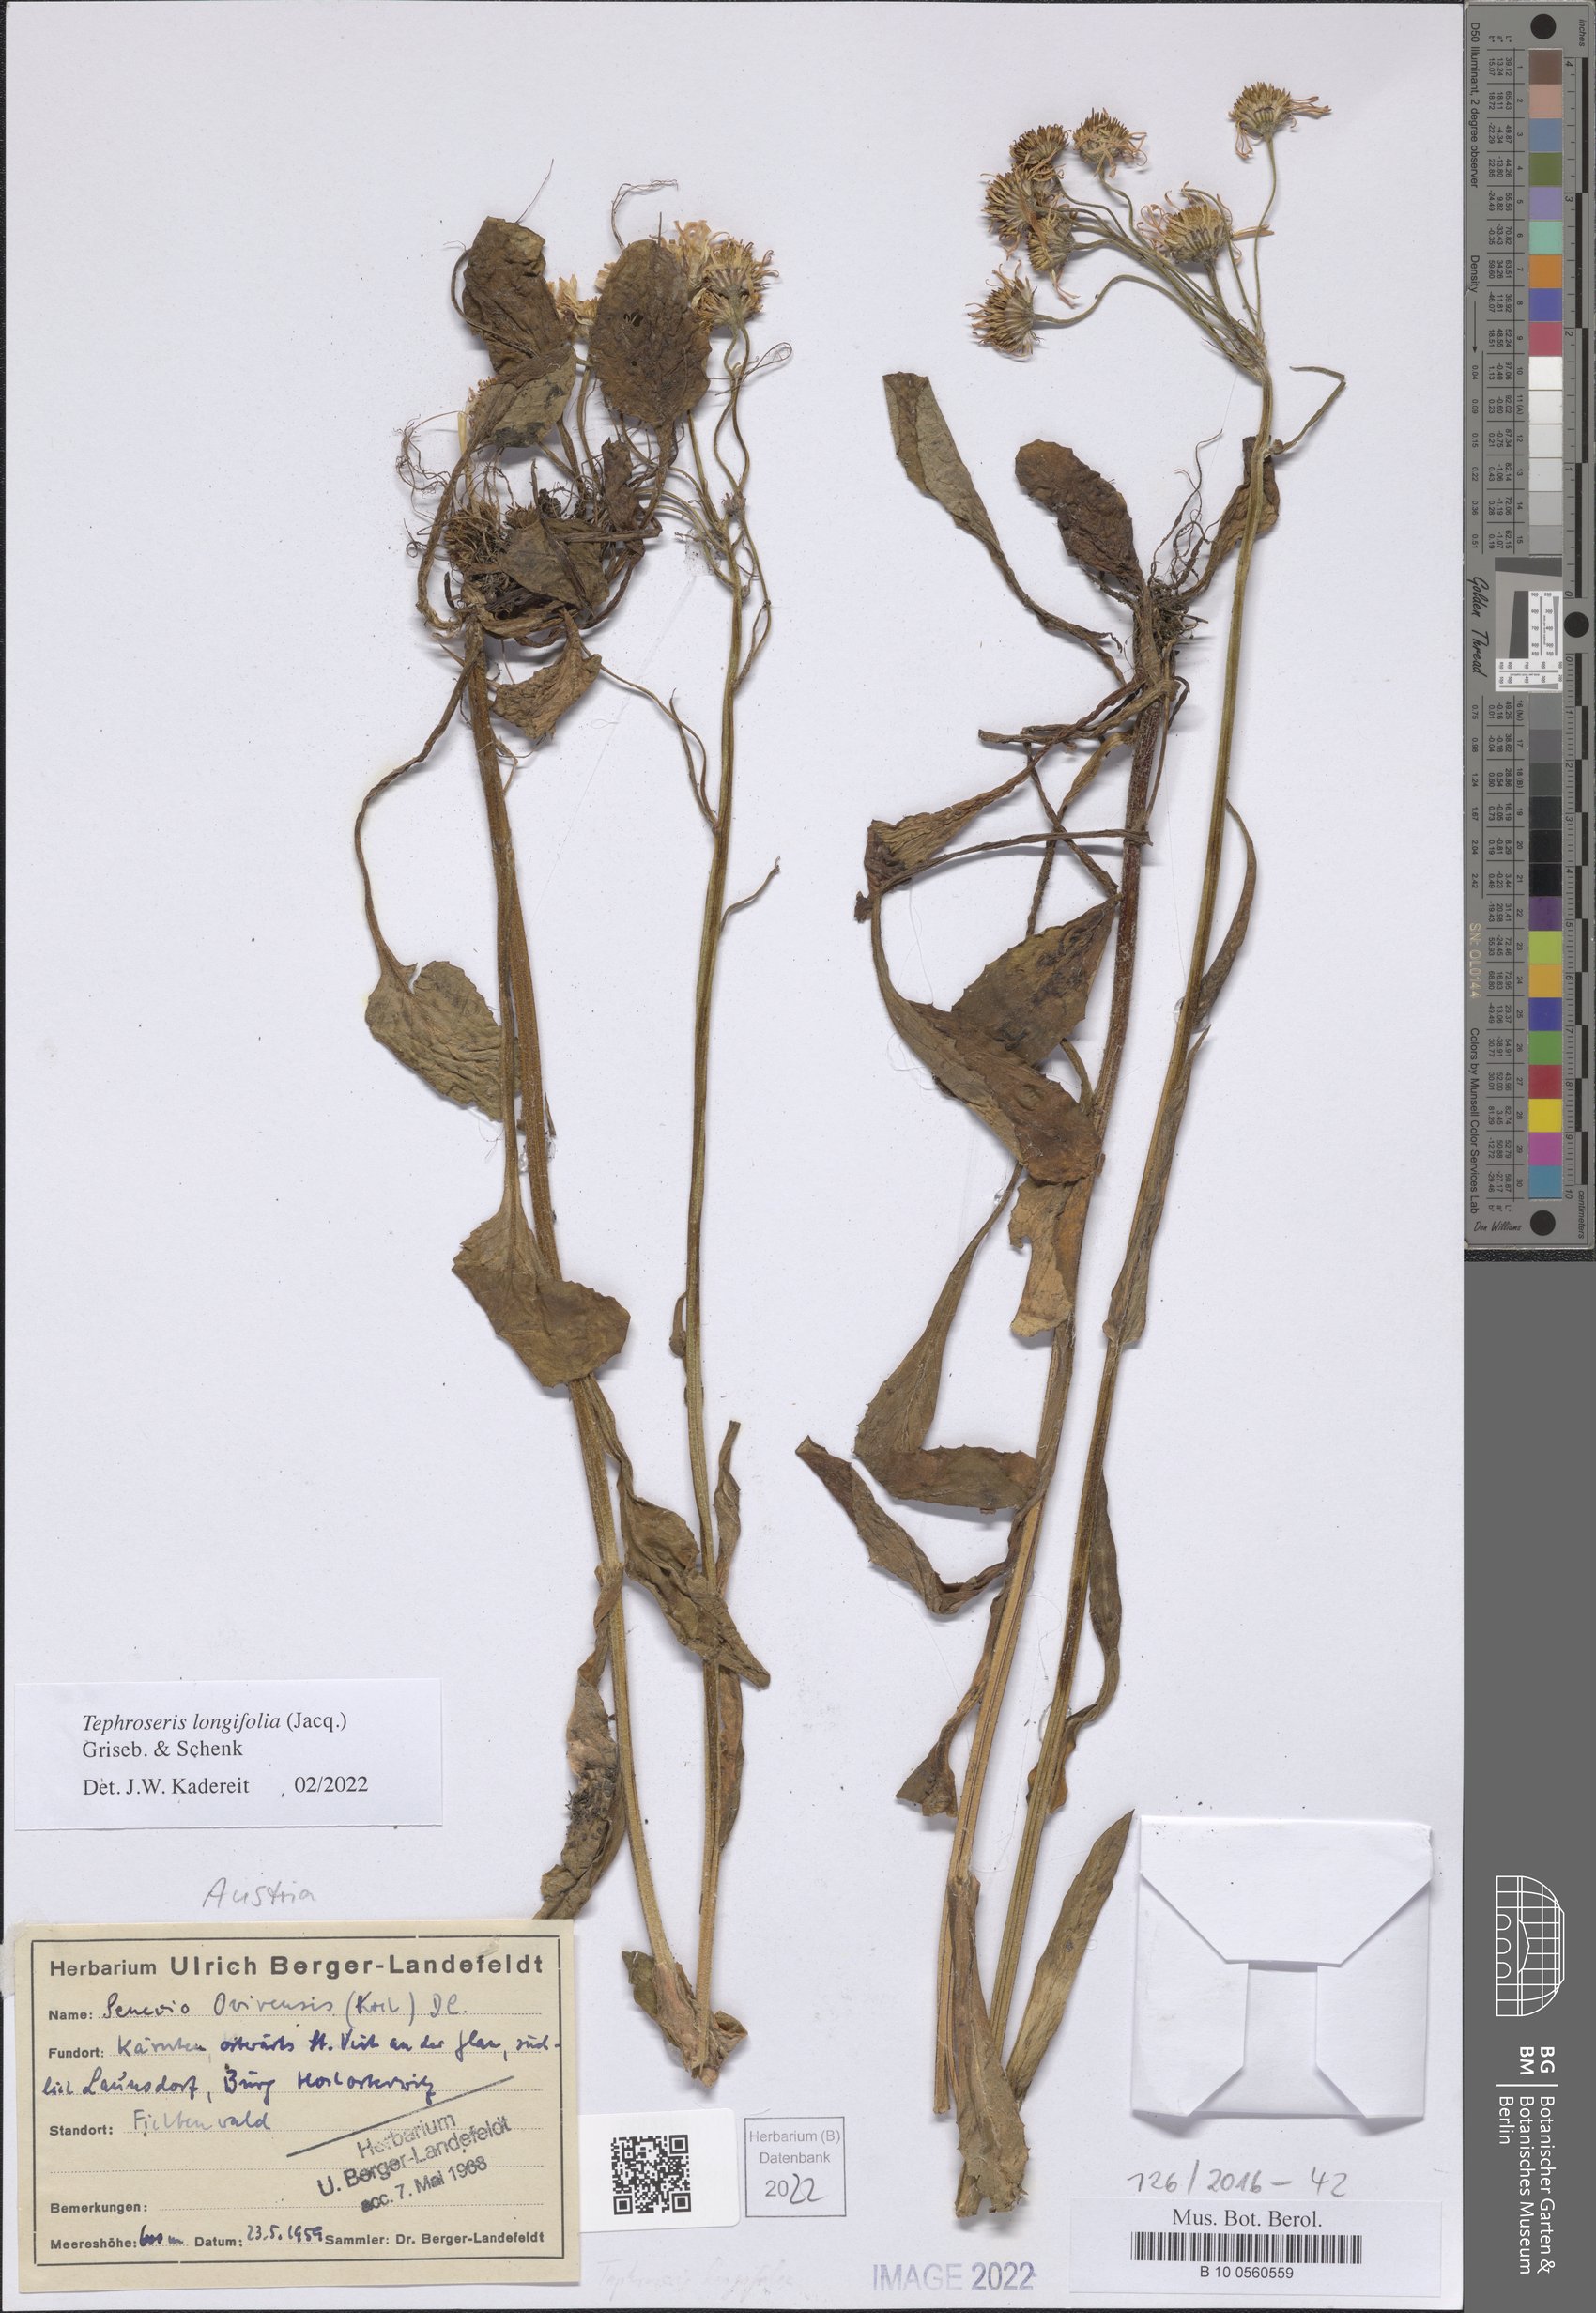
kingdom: Plantae
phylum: Tracheophyta
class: Magnoliopsida
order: Asterales
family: Asteraceae
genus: Tephroseris
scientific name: Tephroseris longifolia
